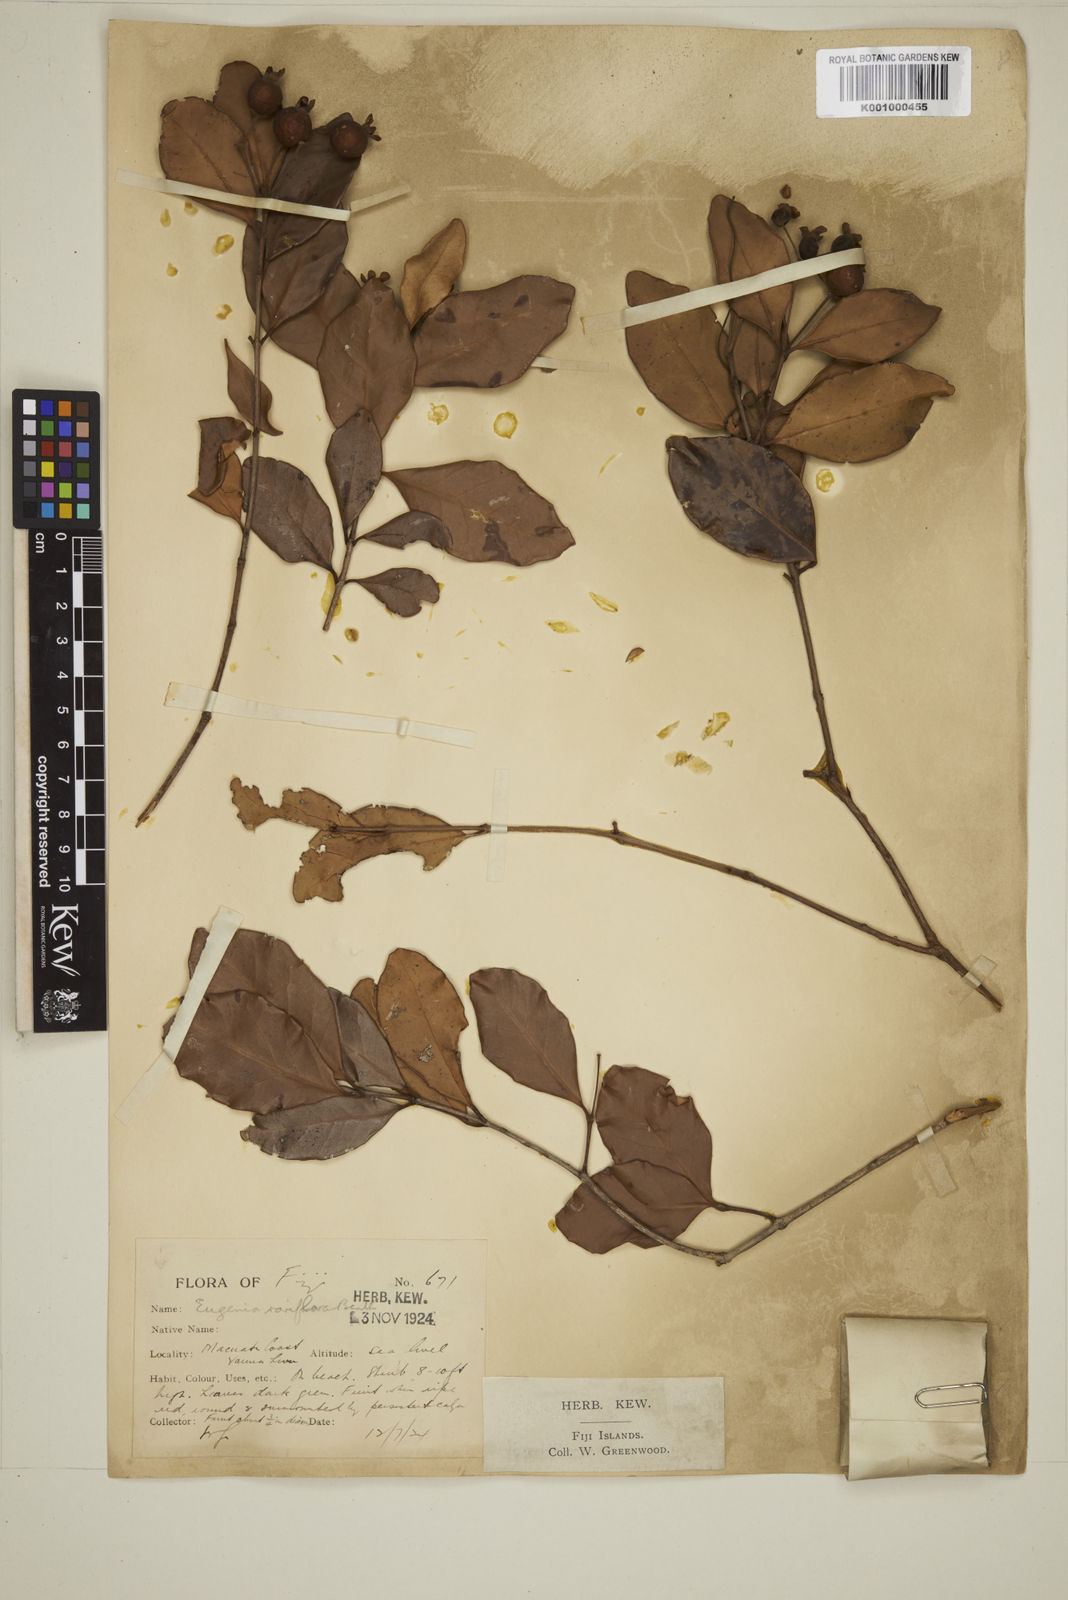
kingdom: Plantae
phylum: Tracheophyta
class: Magnoliopsida
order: Myrtales
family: Myrtaceae
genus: Eugenia
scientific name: Eugenia reinwardtiana
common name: Cedar bay-cherry
